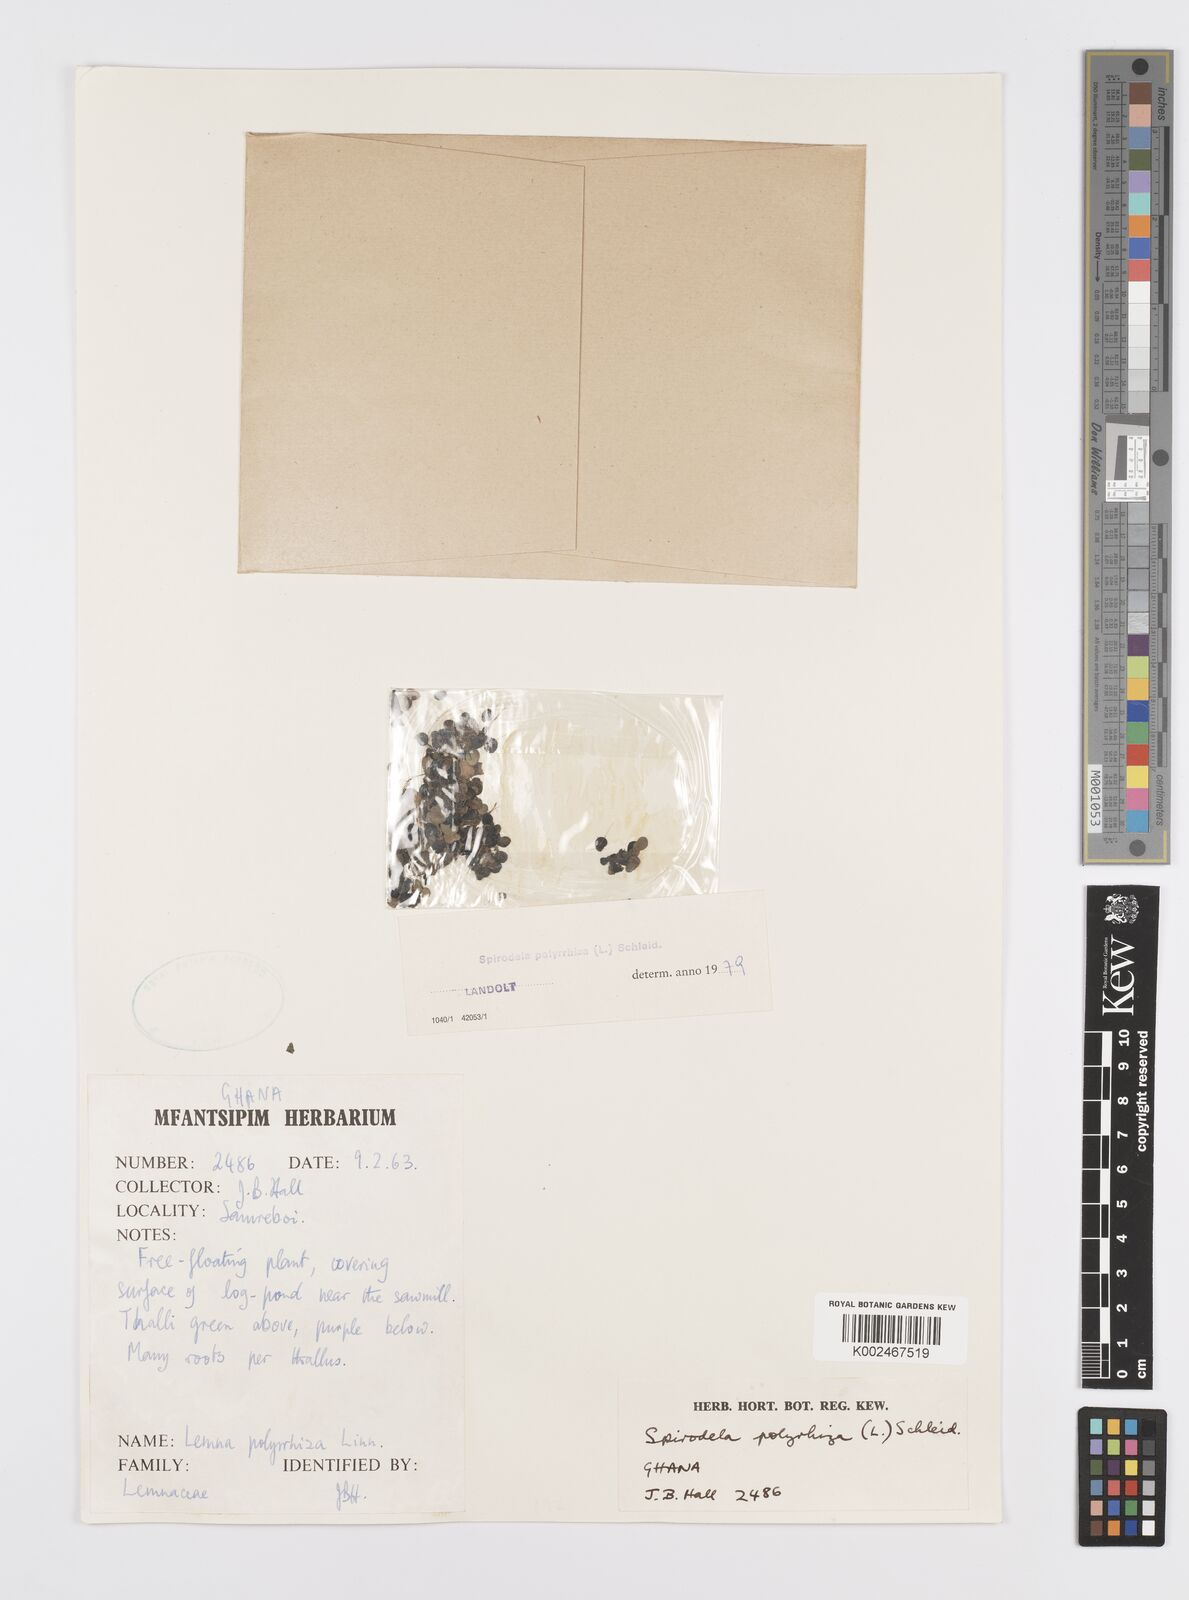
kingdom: Plantae
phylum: Tracheophyta
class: Liliopsida
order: Alismatales
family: Araceae
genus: Spirodela
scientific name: Spirodela polyrhiza
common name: Great duckweed
